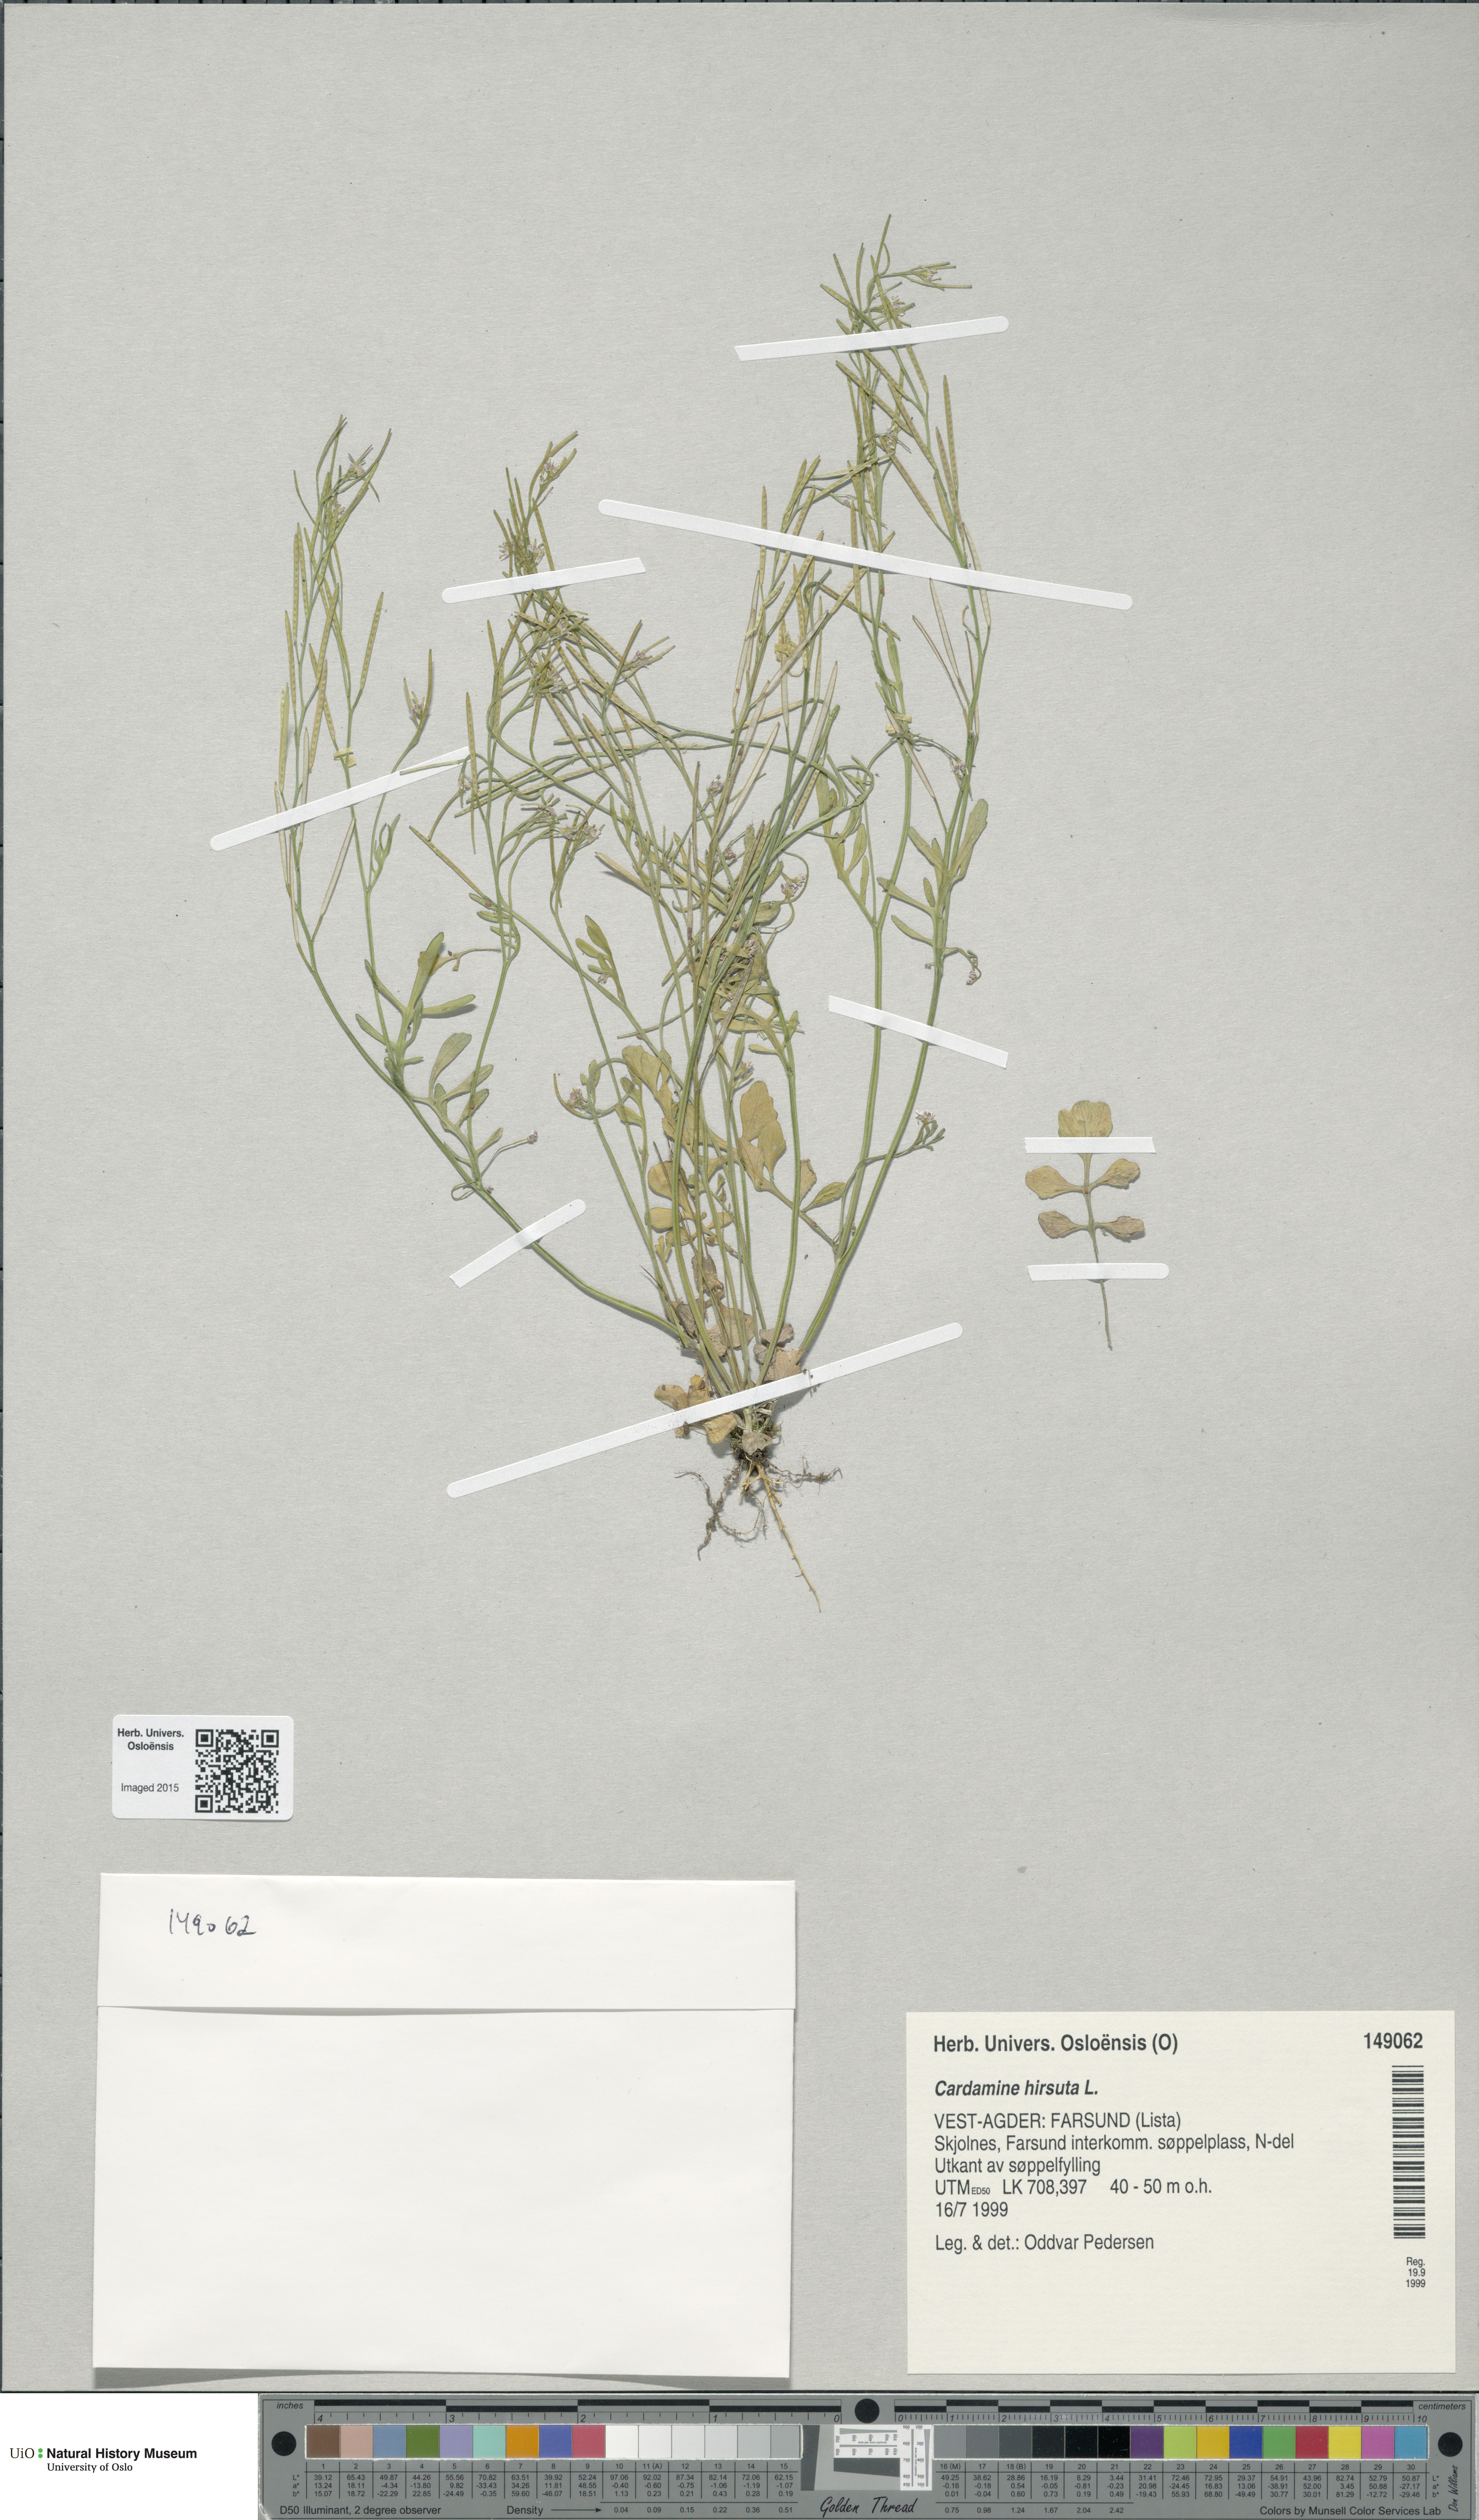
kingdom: Plantae
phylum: Tracheophyta
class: Magnoliopsida
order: Brassicales
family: Brassicaceae
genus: Cardamine
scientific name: Cardamine hirsuta
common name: Hairy bittercress
